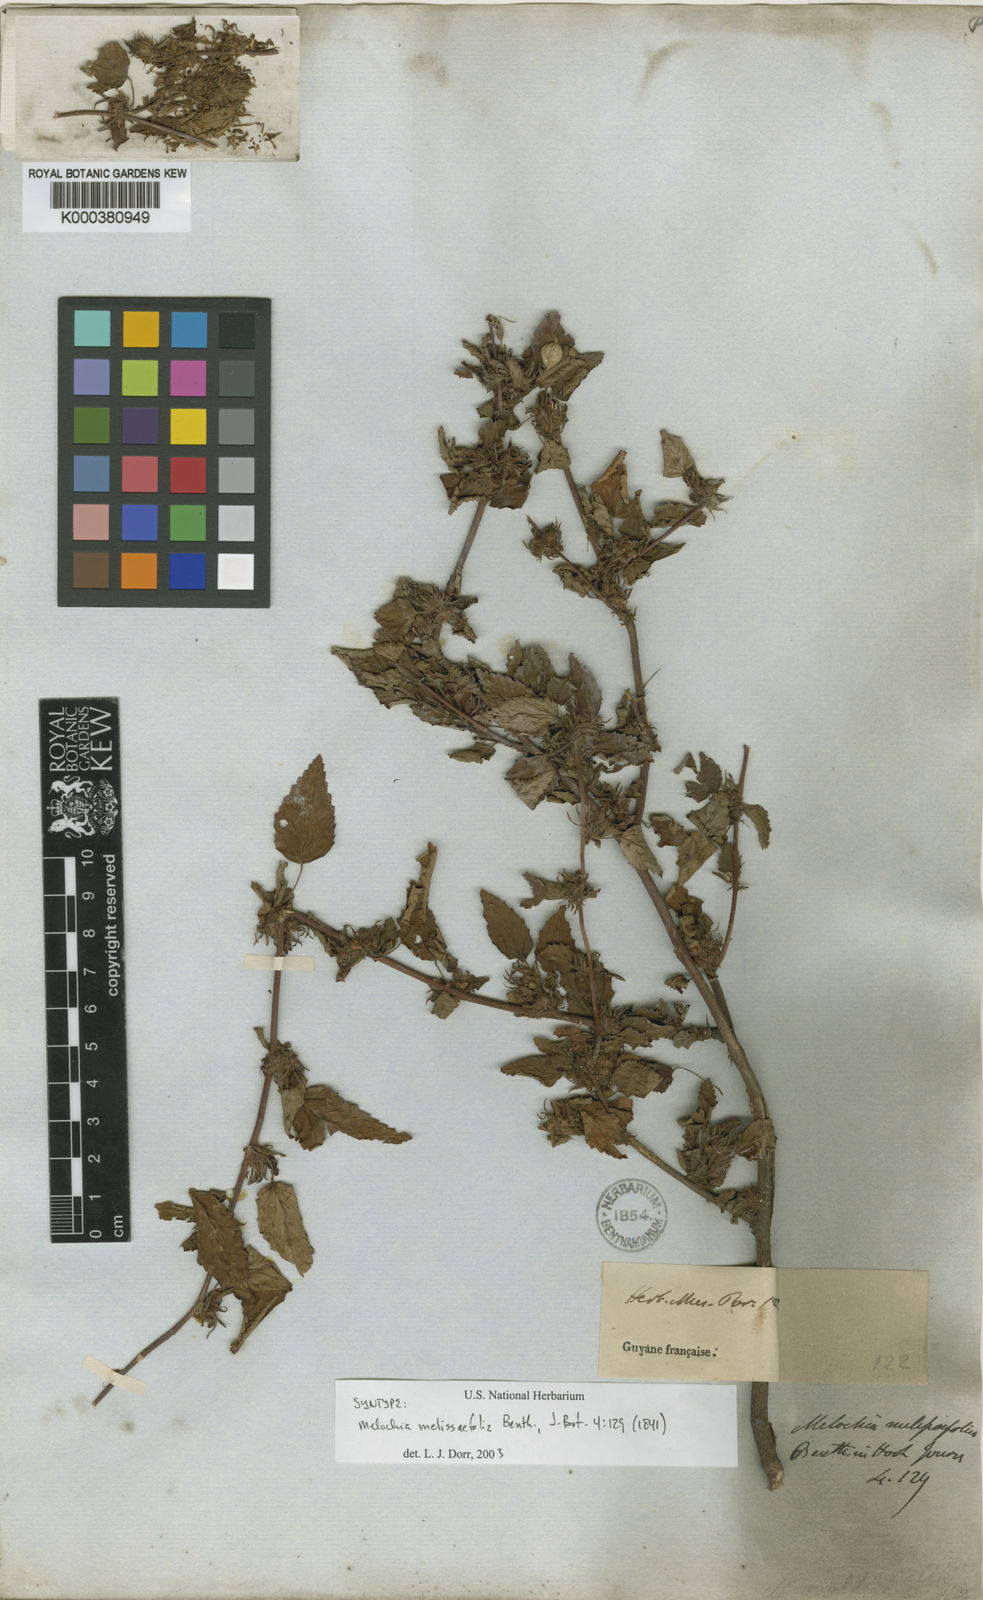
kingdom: Plantae
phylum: Tracheophyta
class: Magnoliopsida
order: Malvales
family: Malvaceae
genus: Melochia
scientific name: Melochia melissifolia
